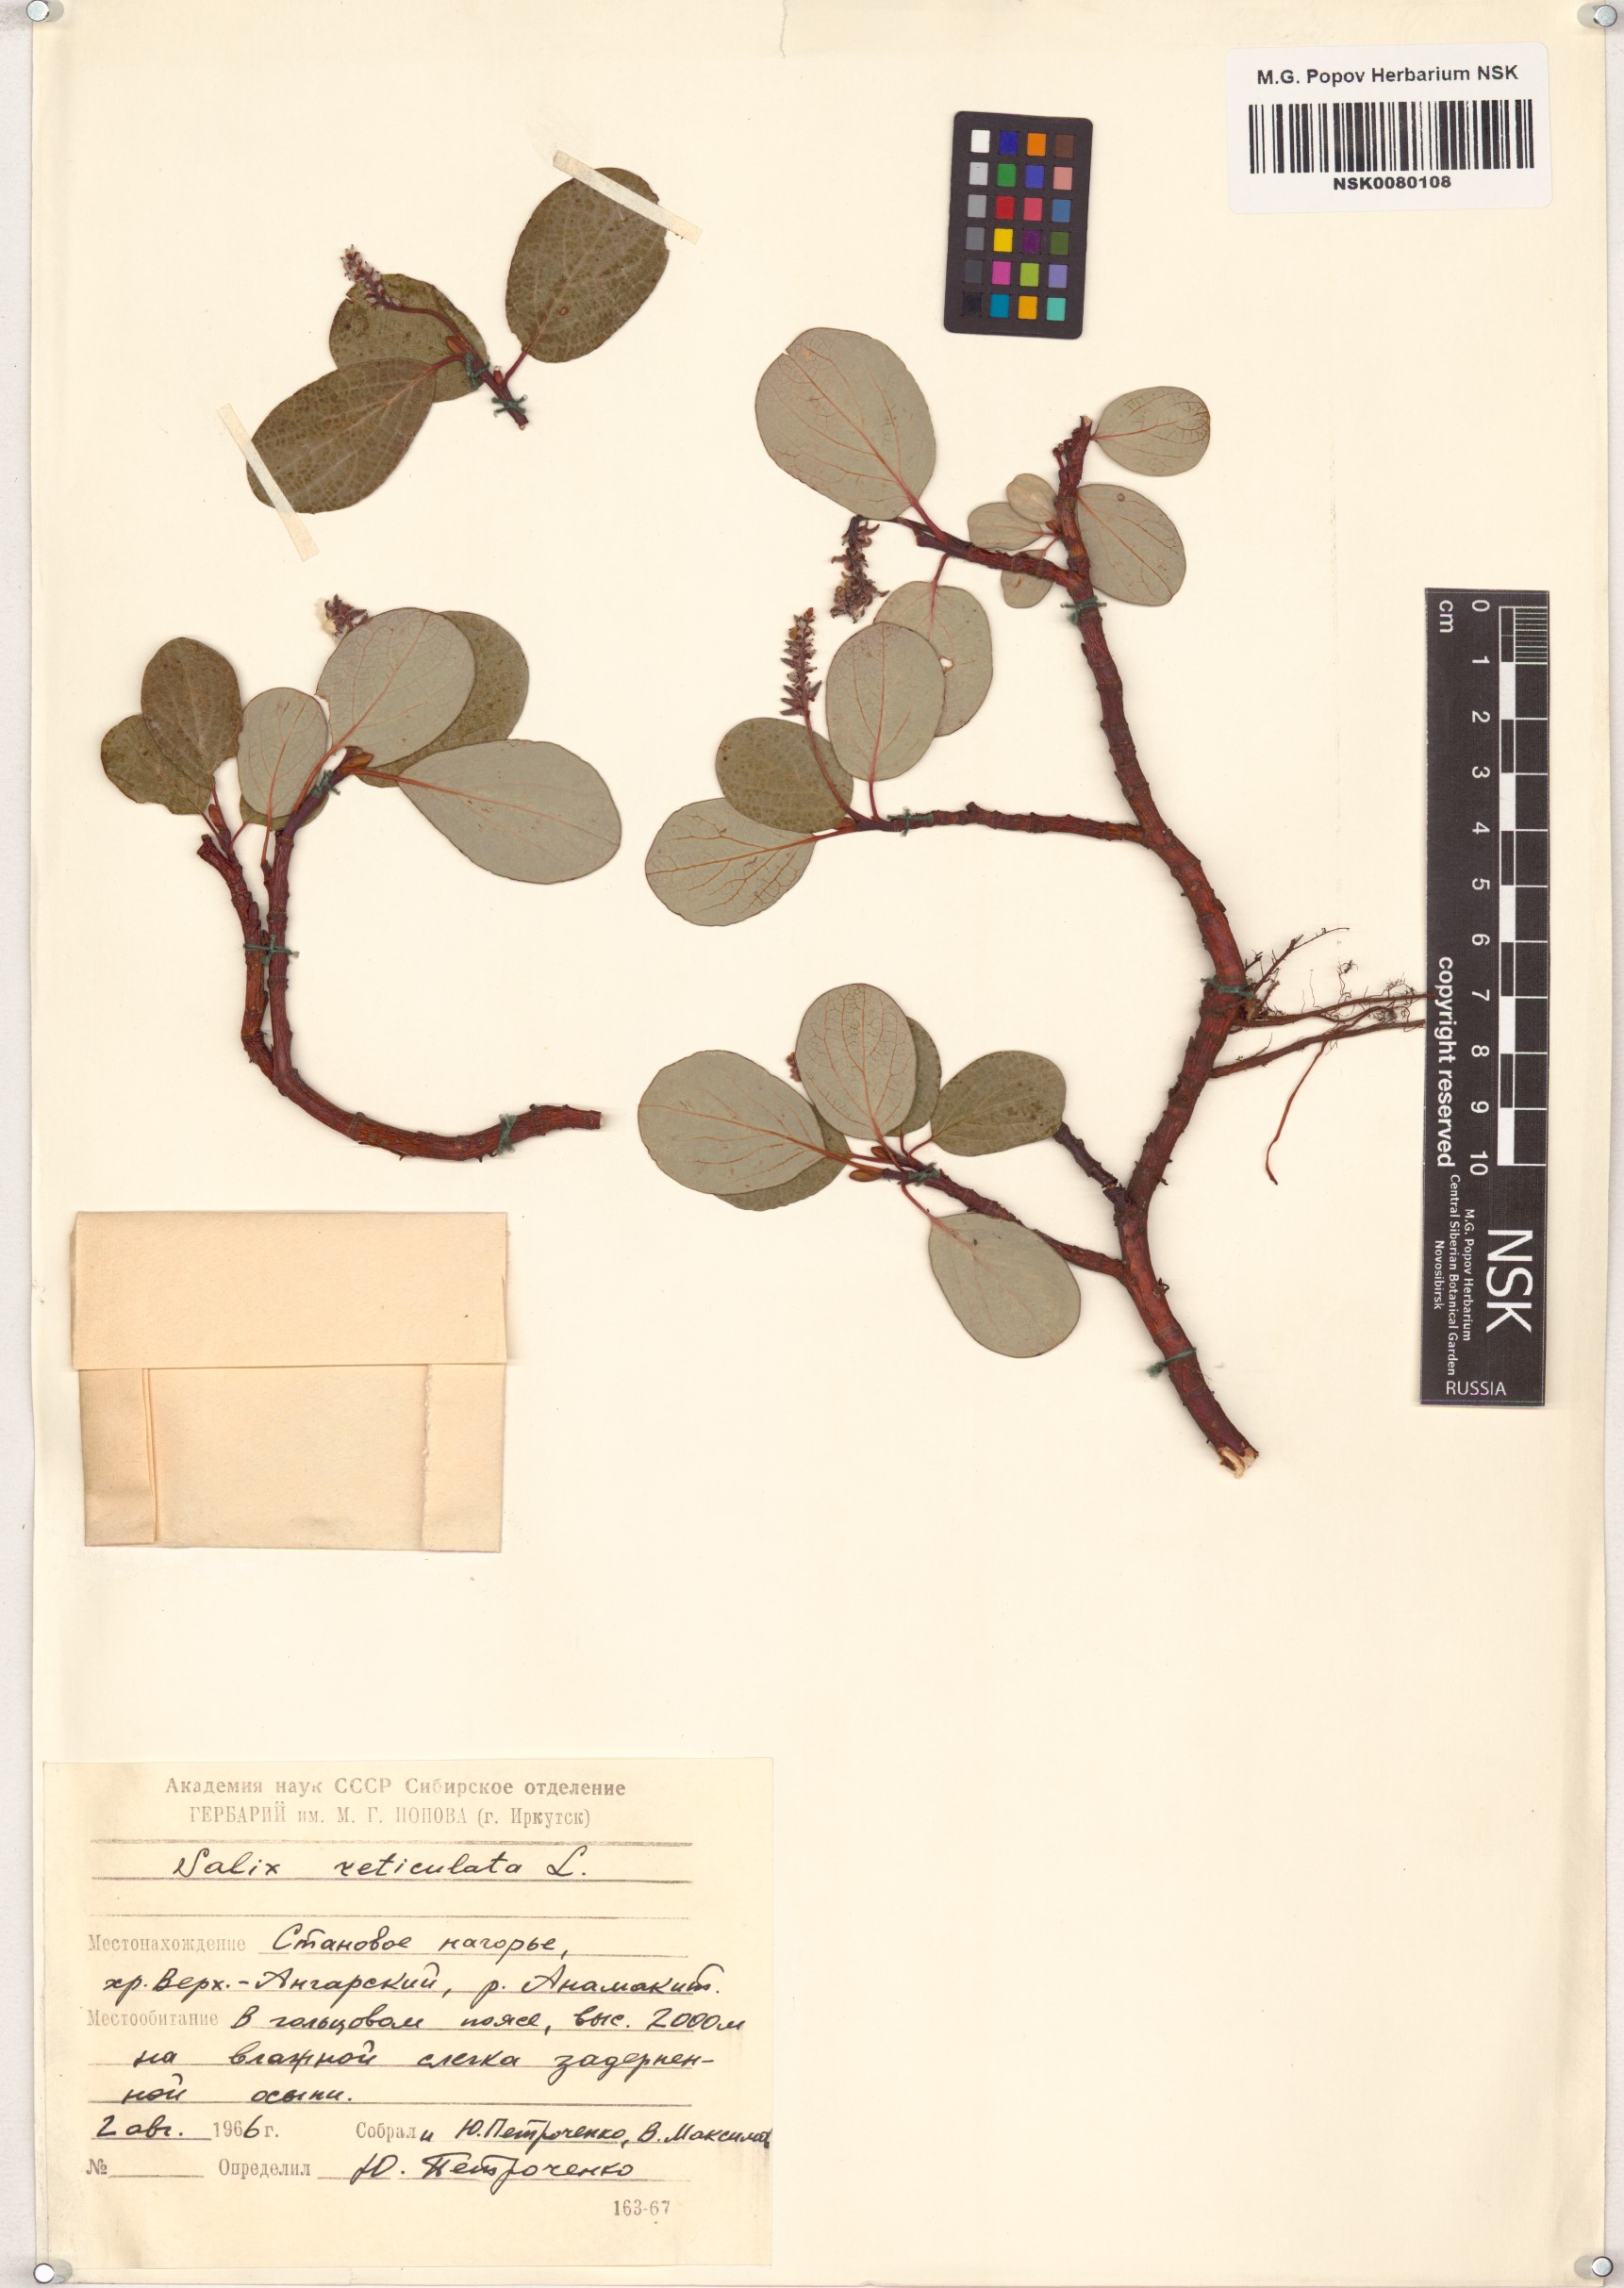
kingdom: Plantae
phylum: Tracheophyta
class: Magnoliopsida
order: Malpighiales
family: Salicaceae
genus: Salix
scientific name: Salix reticulata
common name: Net-leaved willow
